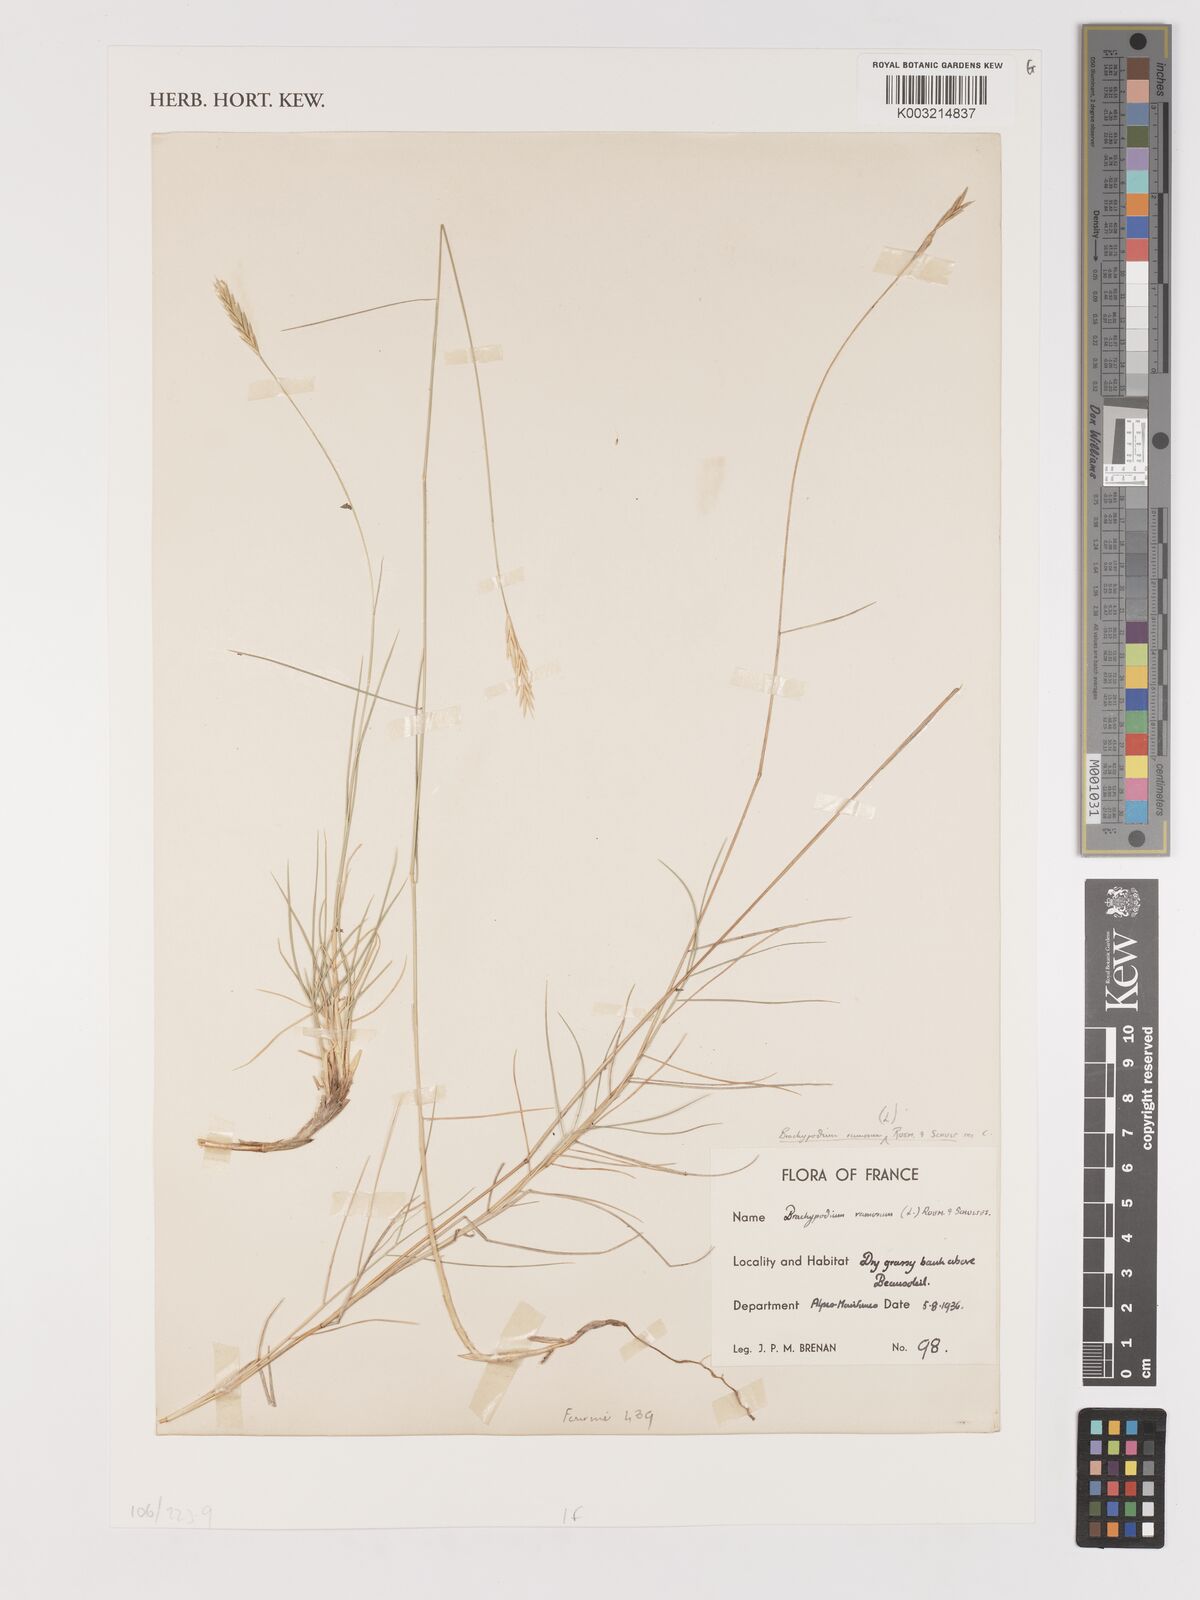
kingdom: Plantae
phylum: Tracheophyta
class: Liliopsida
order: Poales
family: Poaceae
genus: Brachypodium
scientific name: Brachypodium
